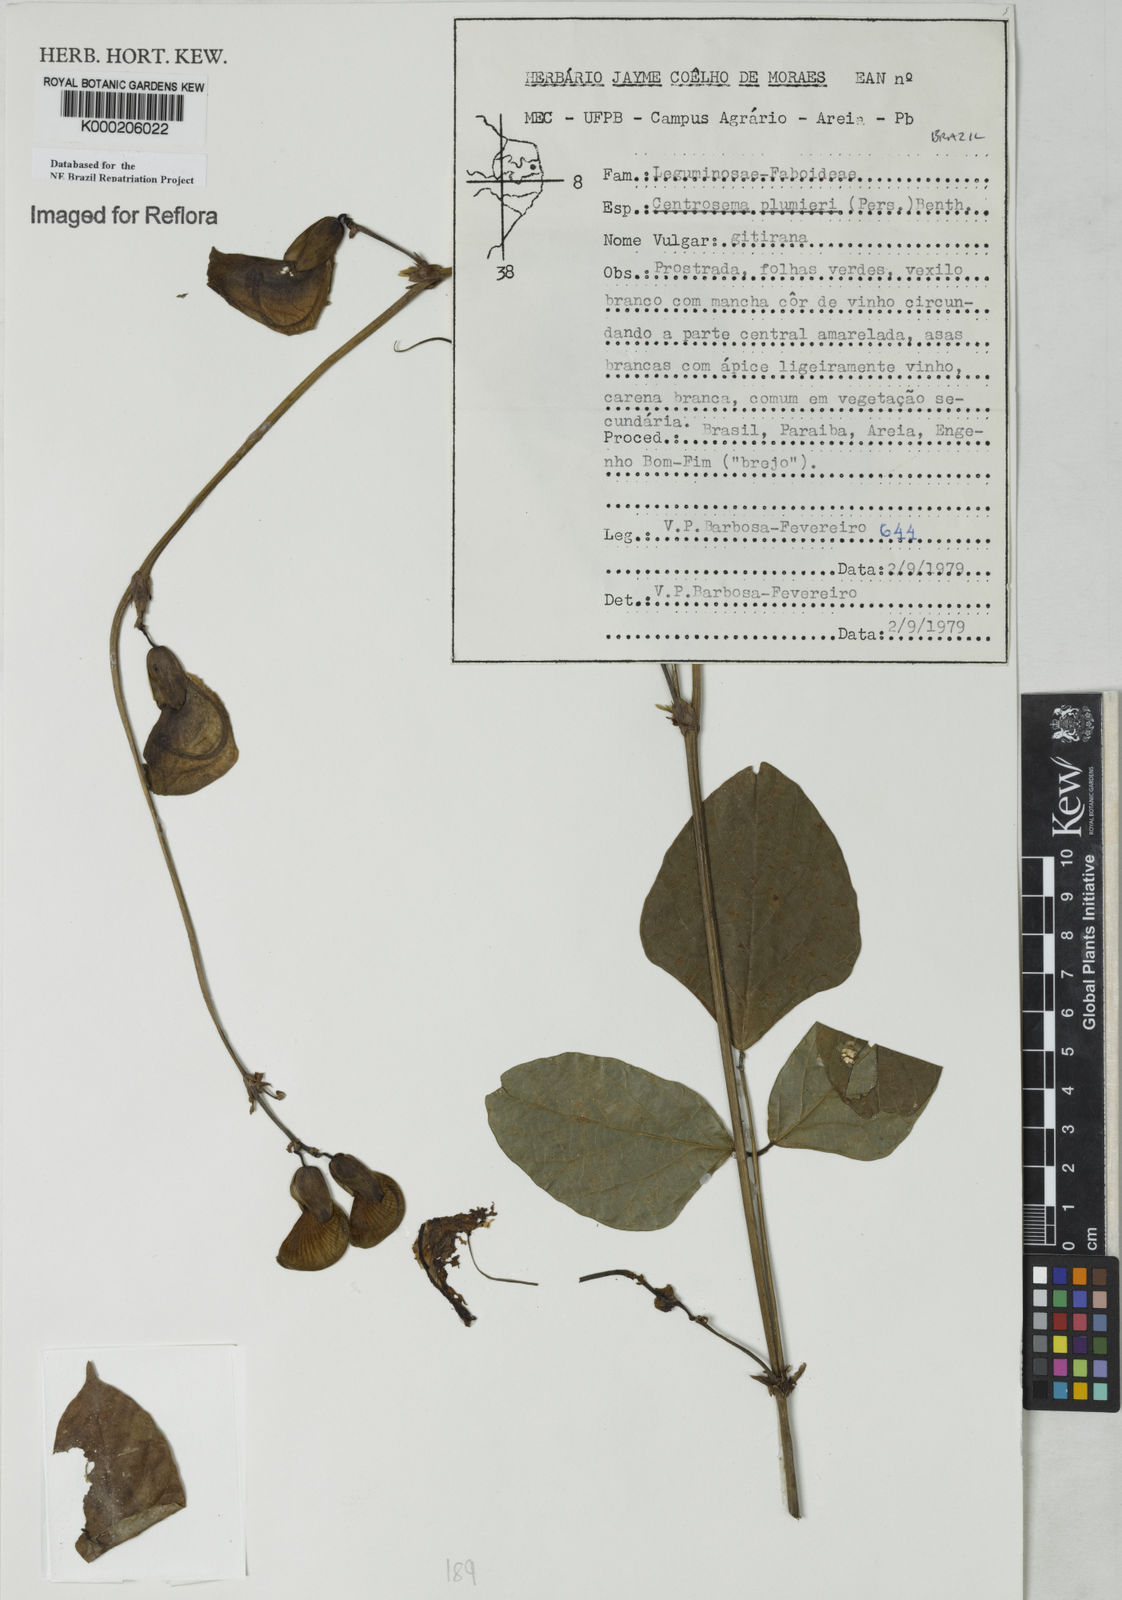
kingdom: Plantae
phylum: Tracheophyta
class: Magnoliopsida
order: Fabales
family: Fabaceae
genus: Centrosema
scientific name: Centrosema plumieri
